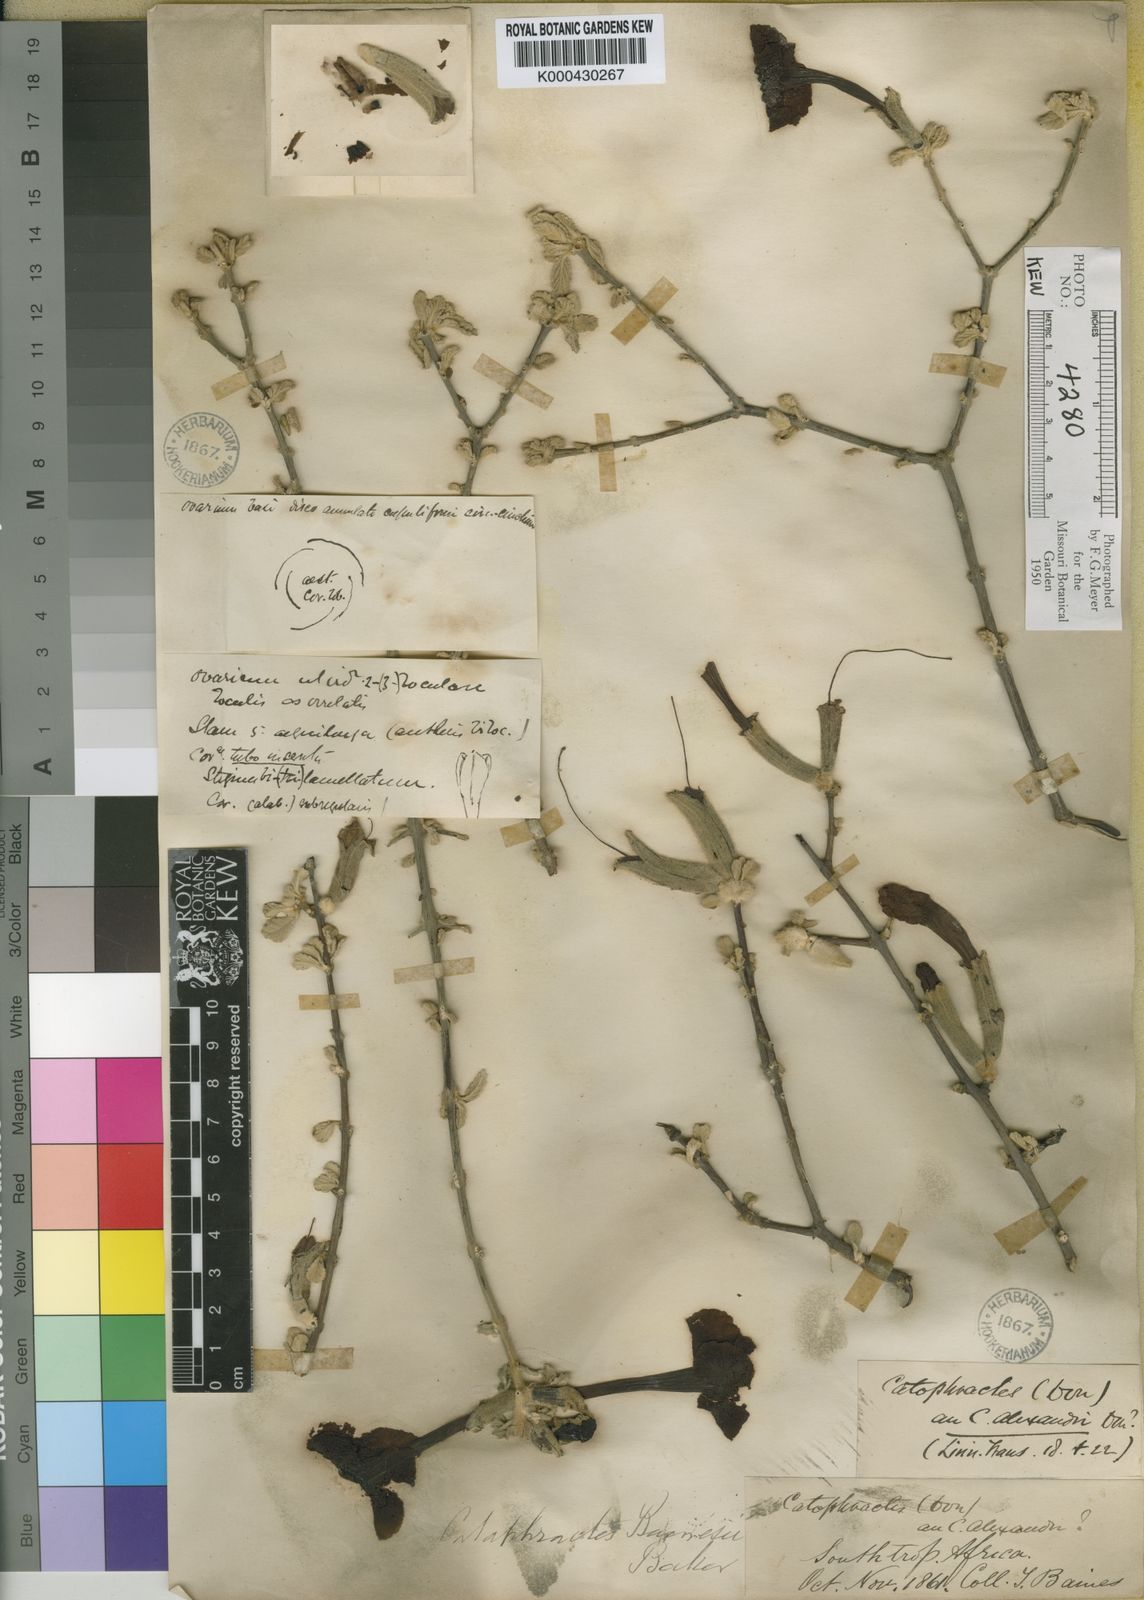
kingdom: Plantae
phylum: Tracheophyta
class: Magnoliopsida
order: Lamiales
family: Bignoniaceae
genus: Catophractes
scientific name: Catophractes alexandri
